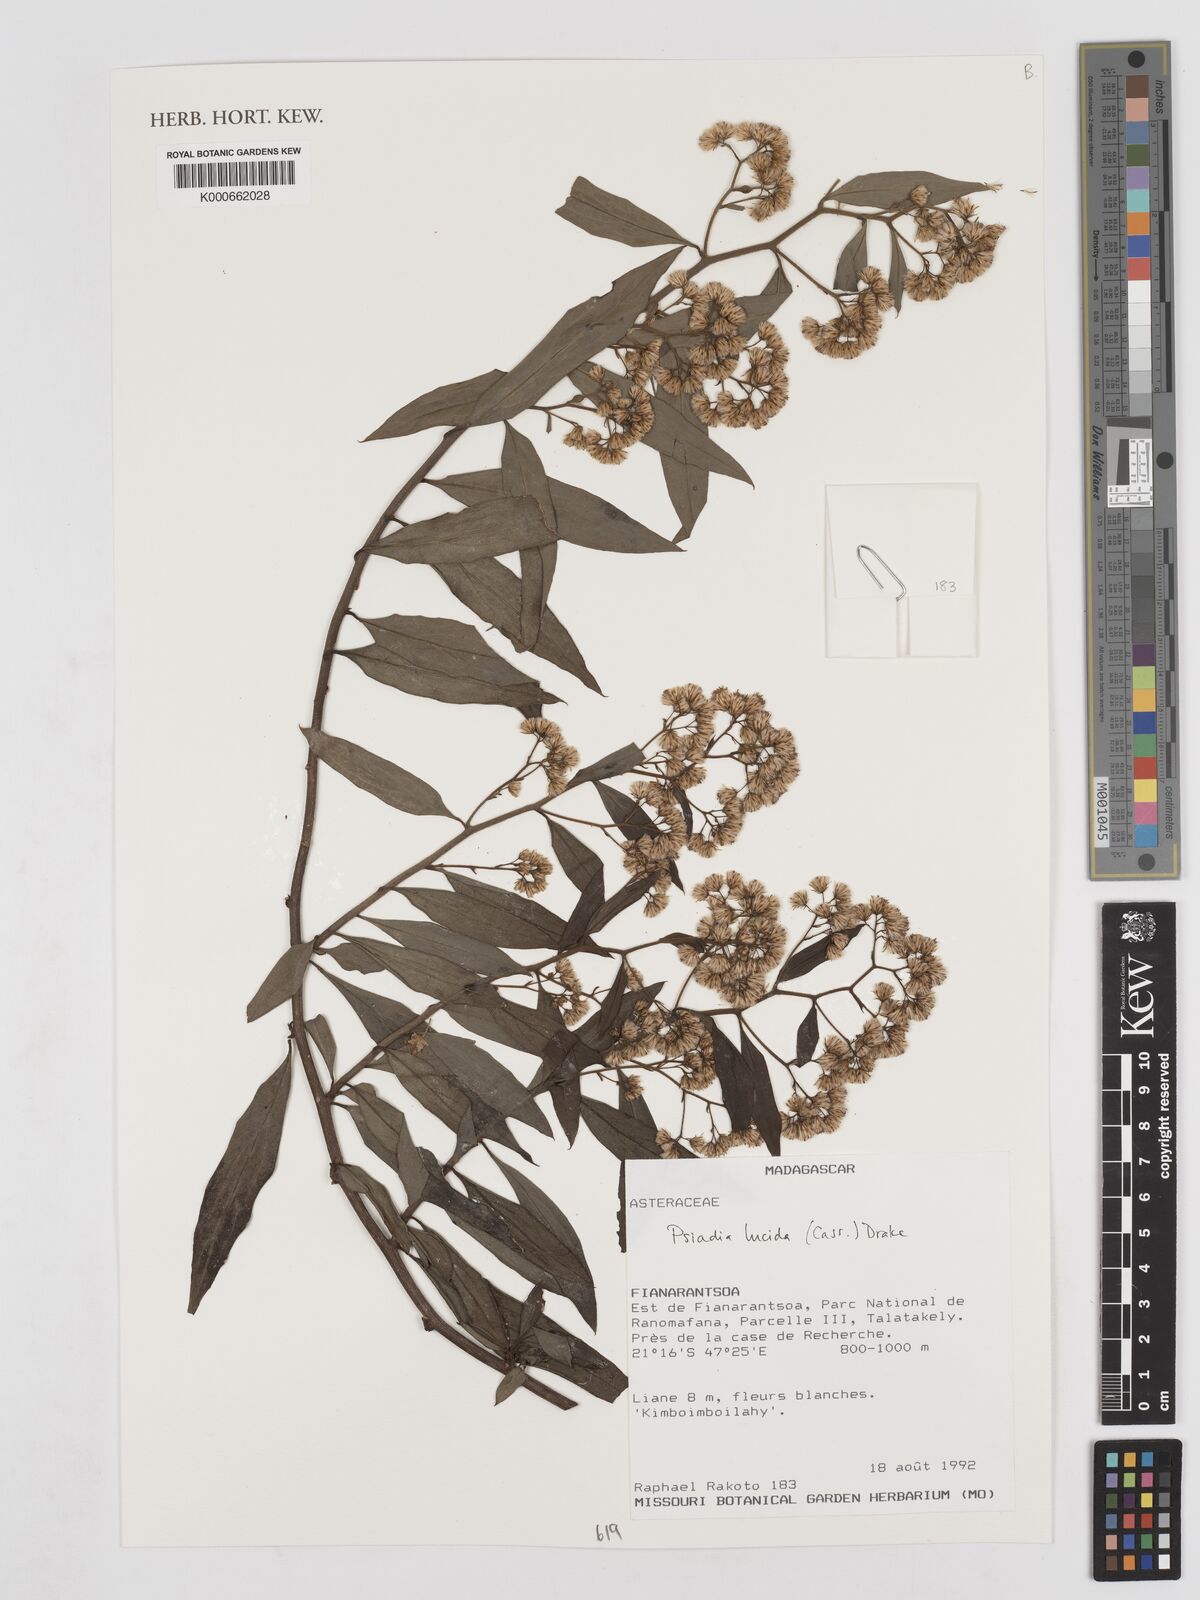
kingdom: Plantae
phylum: Tracheophyta
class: Magnoliopsida
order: Asterales
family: Asteraceae
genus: Psiadia
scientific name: Psiadia lucida
